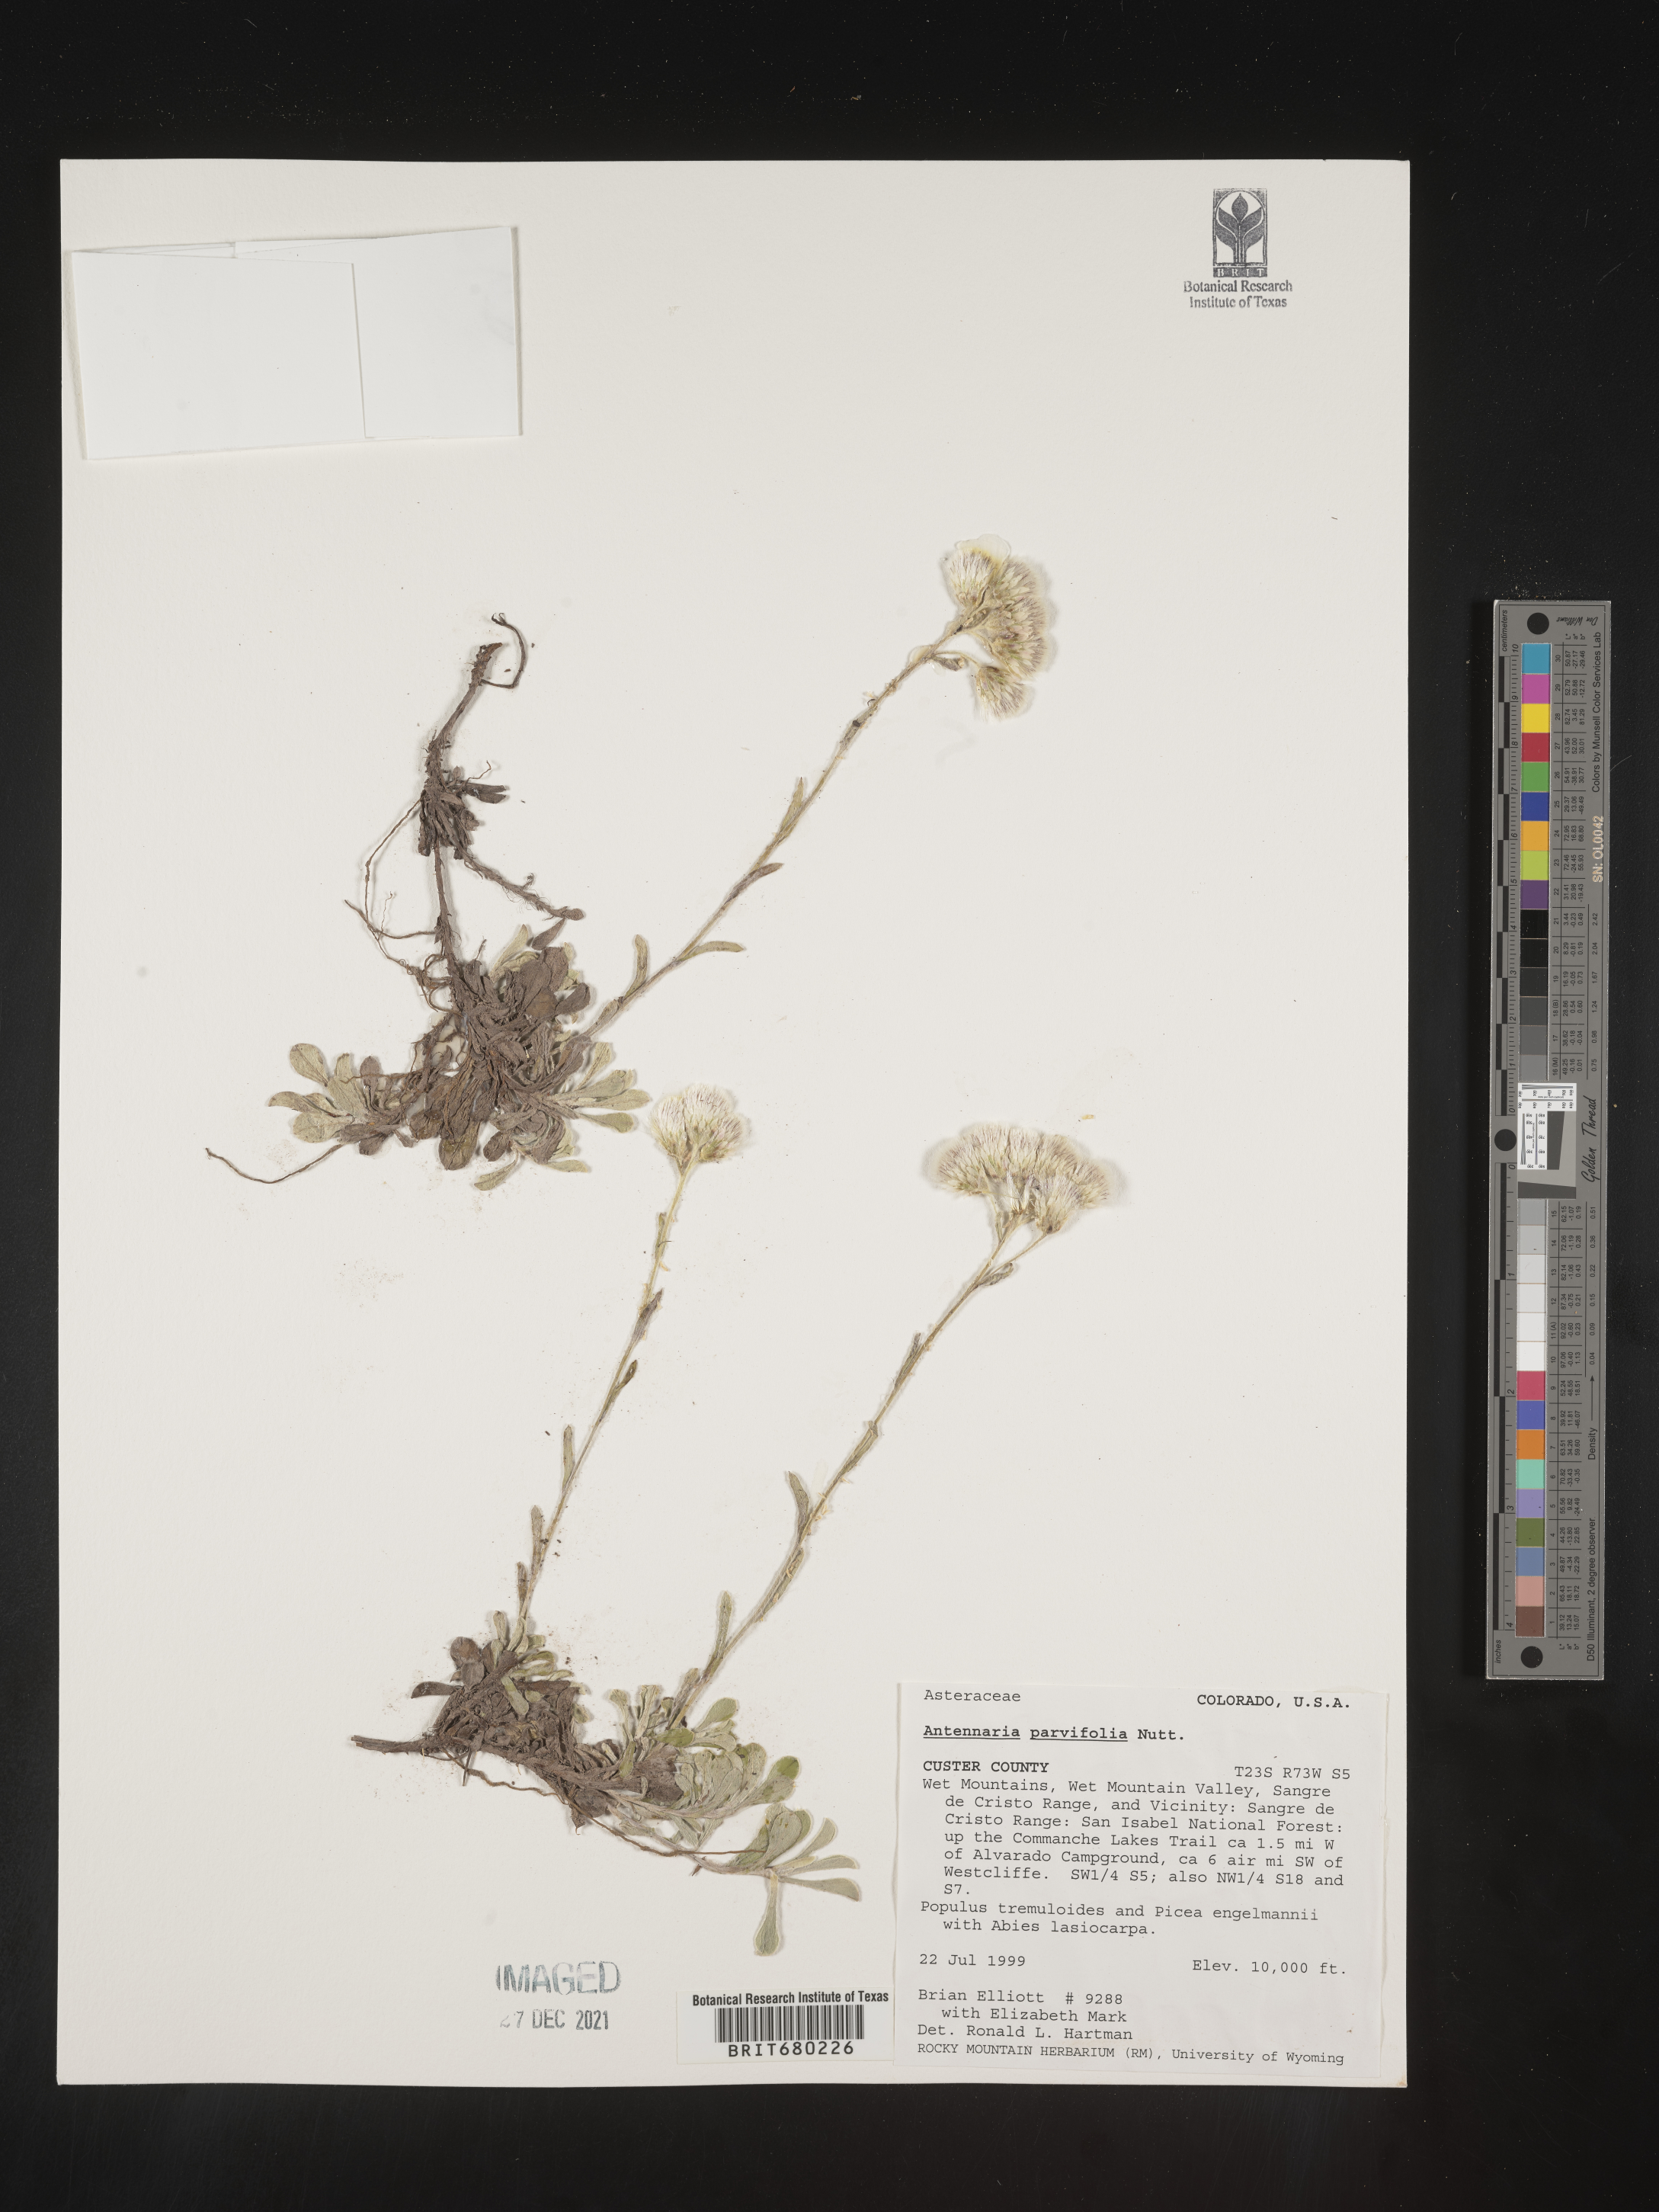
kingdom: Plantae
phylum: Tracheophyta
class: Magnoliopsida
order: Asterales
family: Asteraceae
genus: Antennaria
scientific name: Antennaria plantaginifolia
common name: Plantain-leaved pussytoes
